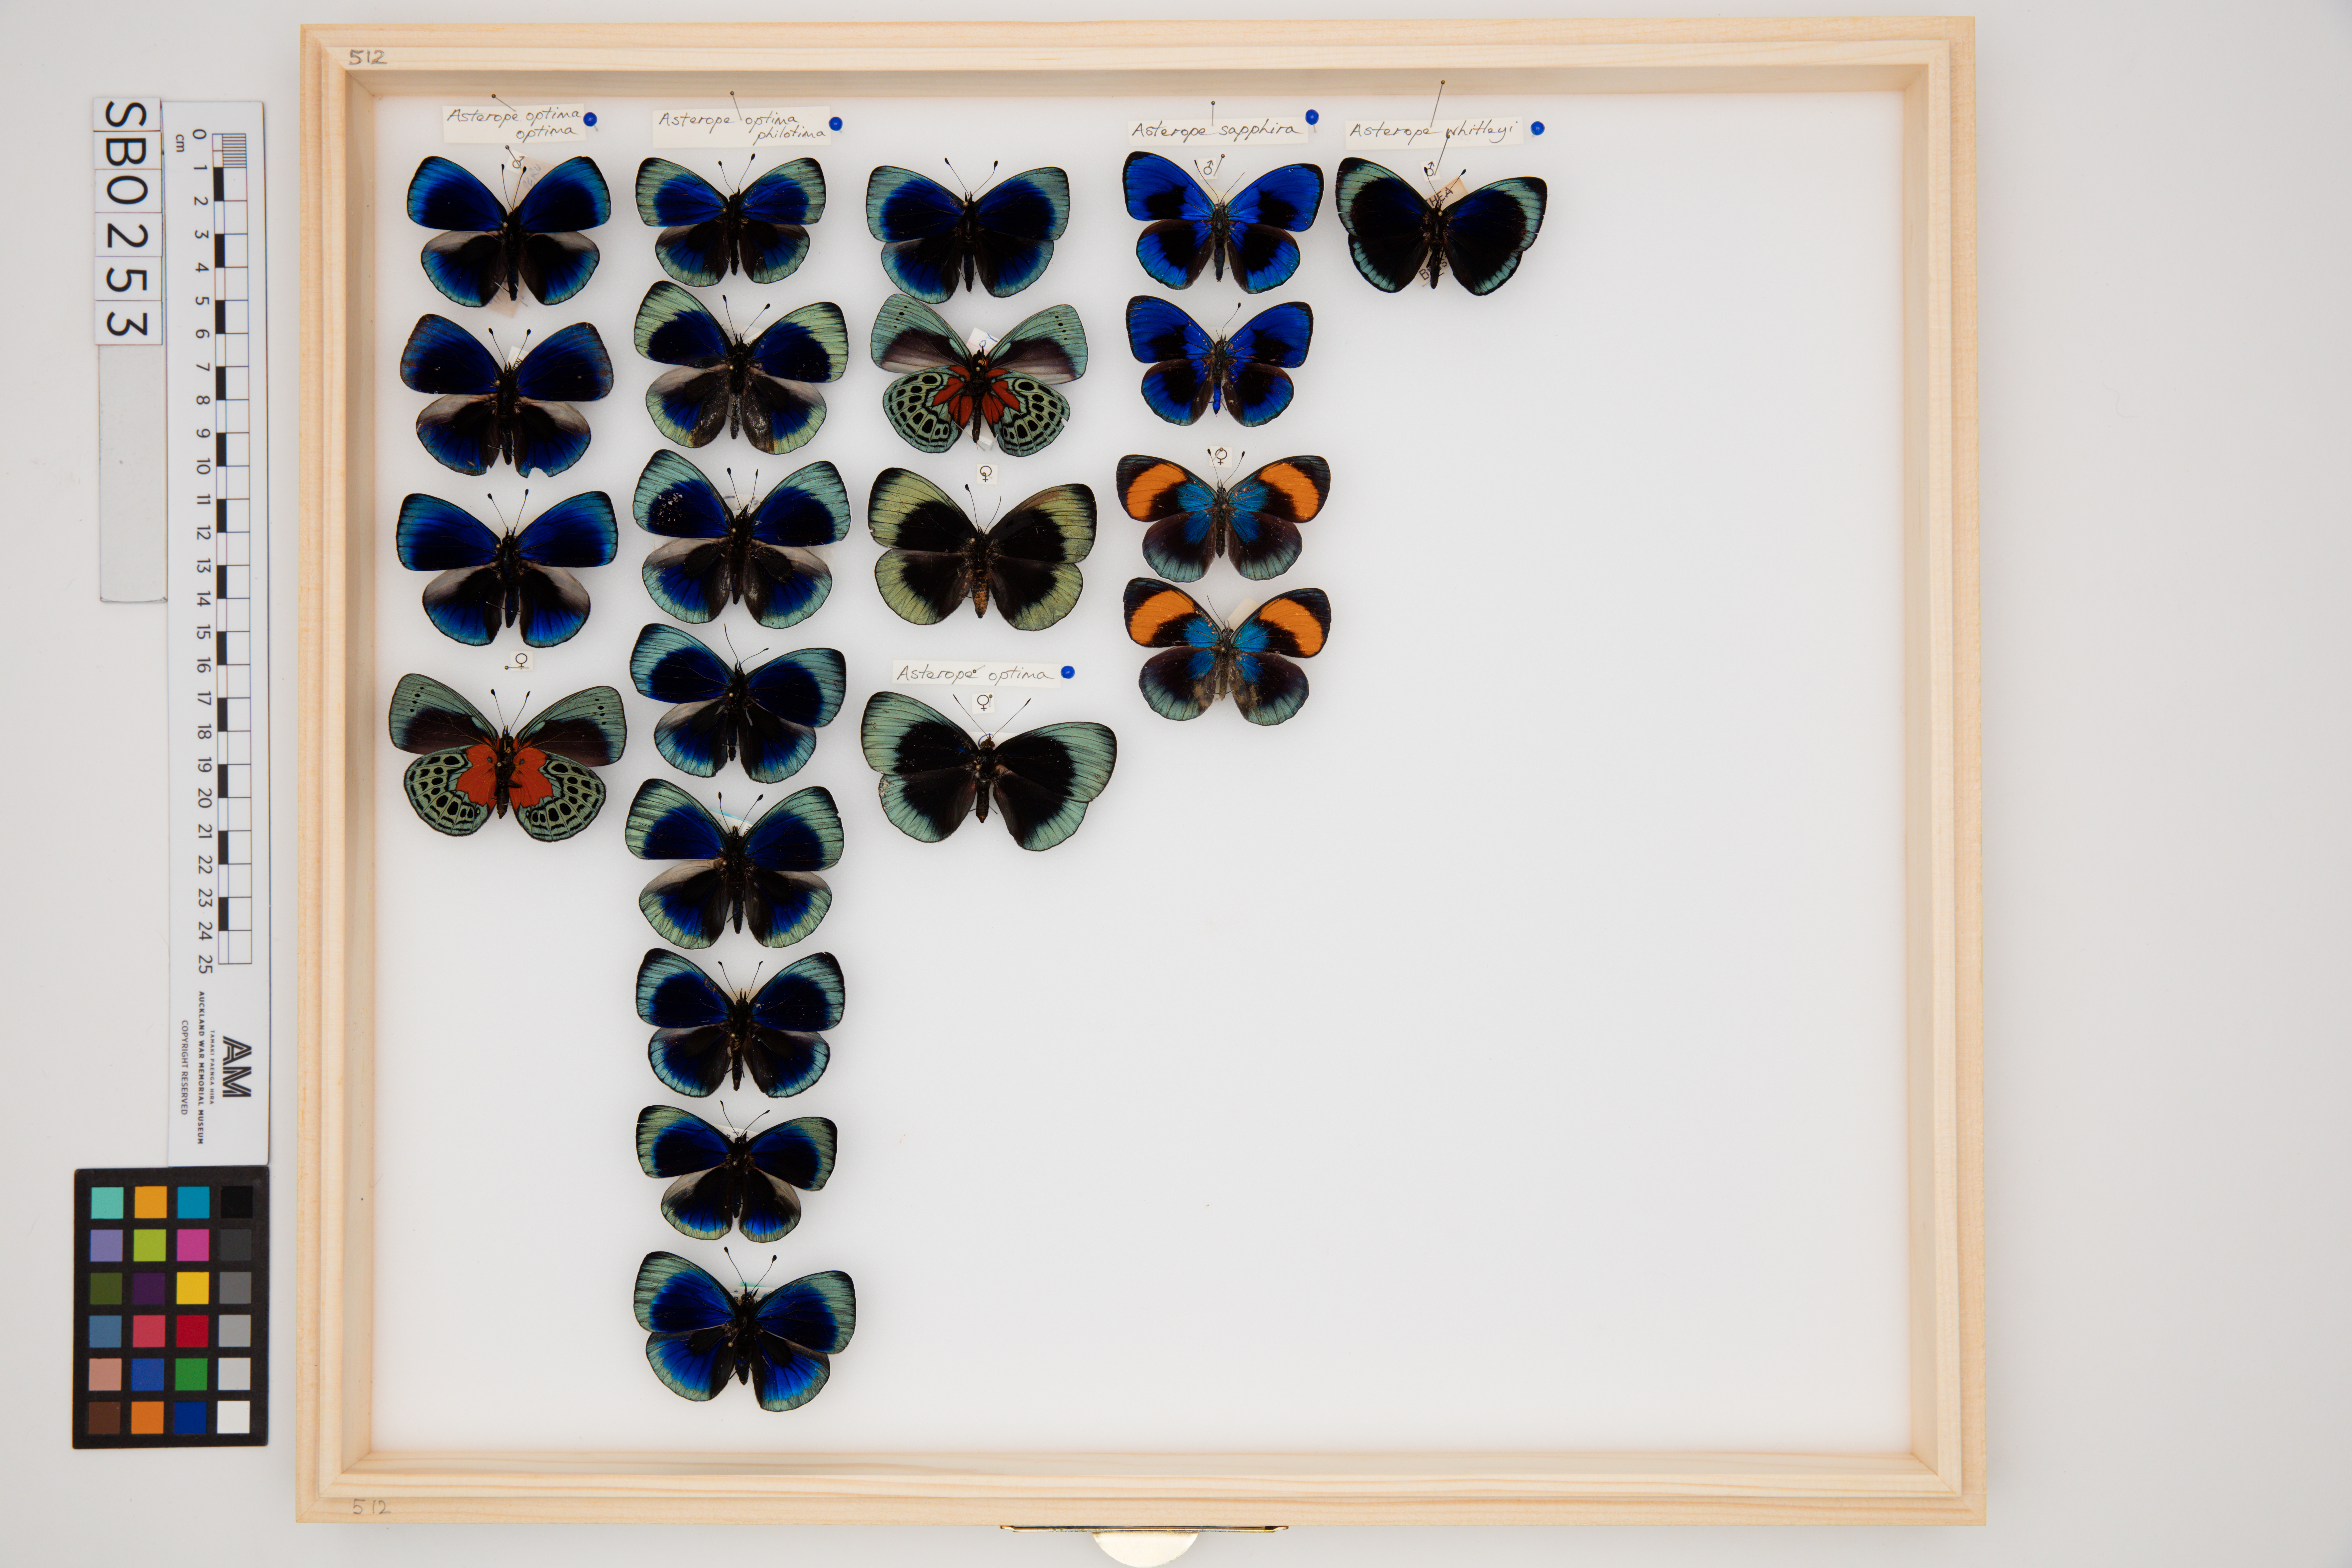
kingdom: Animalia
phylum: Arthropoda
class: Insecta
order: Lepidoptera
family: Nymphalidae
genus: Asterope
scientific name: Asterope
